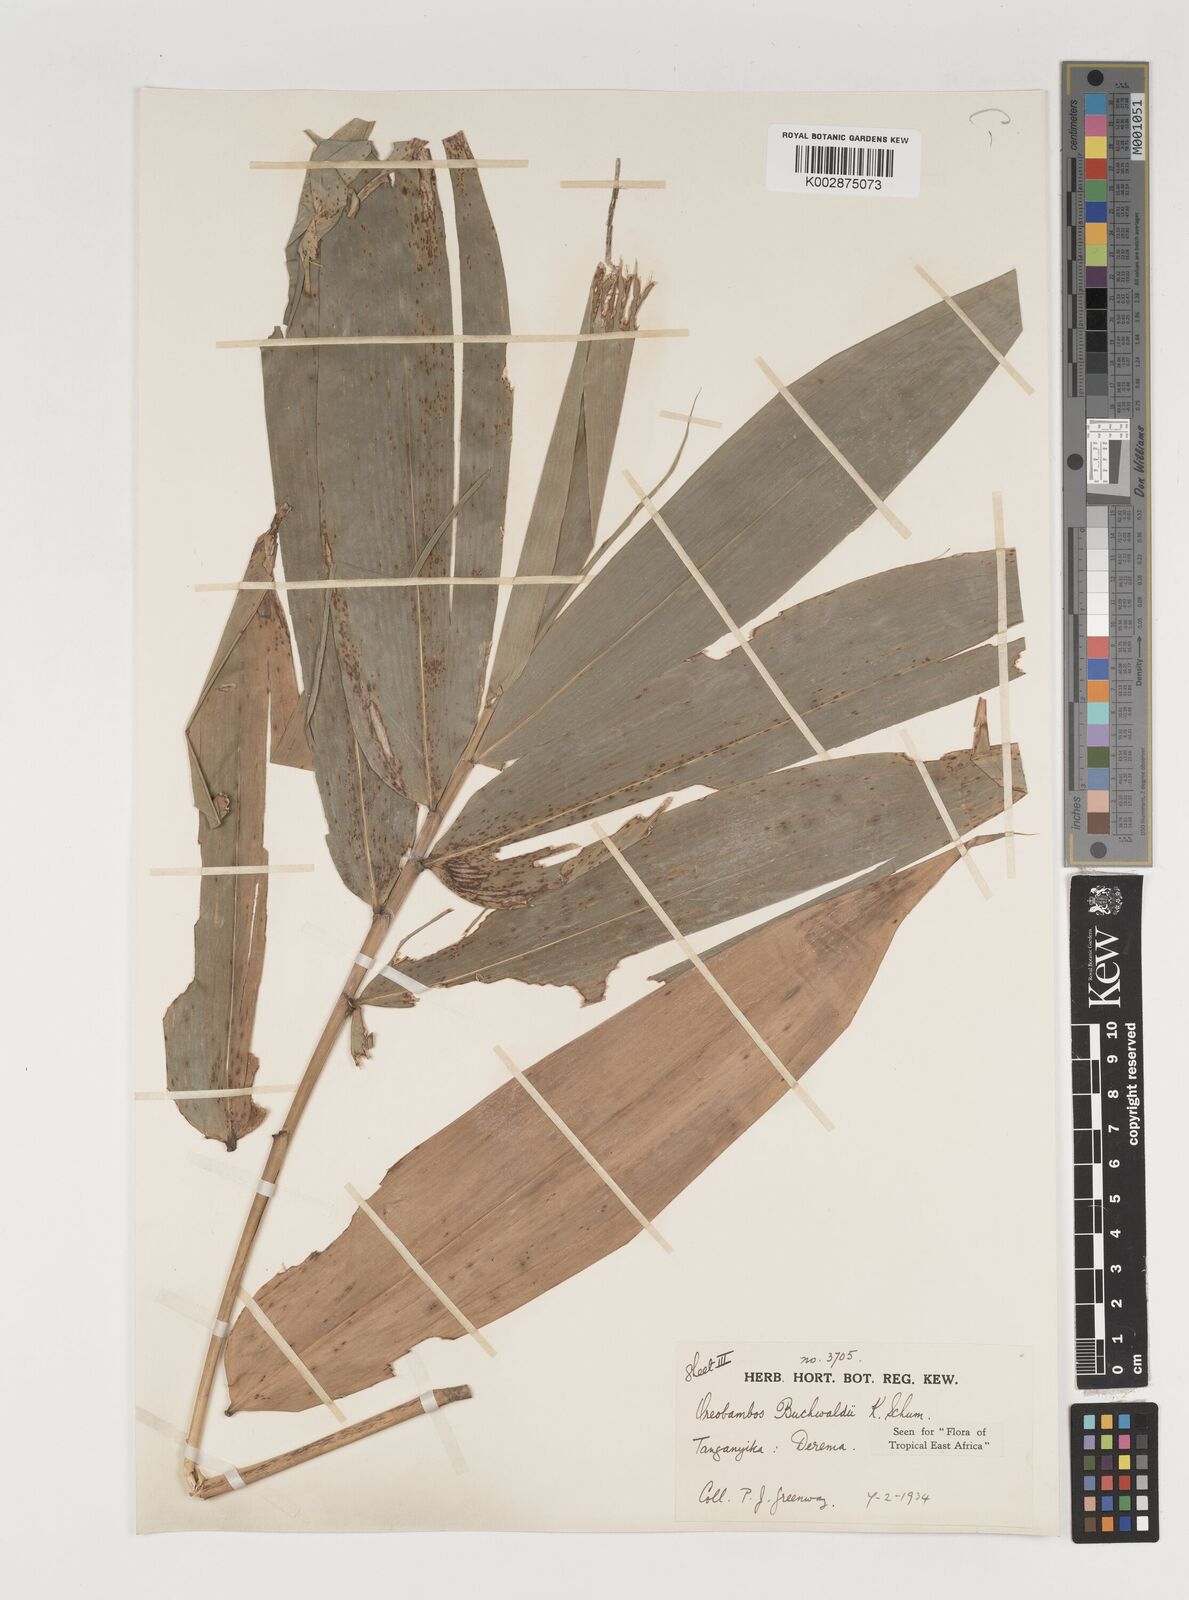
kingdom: Plantae
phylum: Tracheophyta
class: Liliopsida
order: Poales
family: Poaceae
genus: Oreobambos
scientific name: Oreobambos buchwaldii
